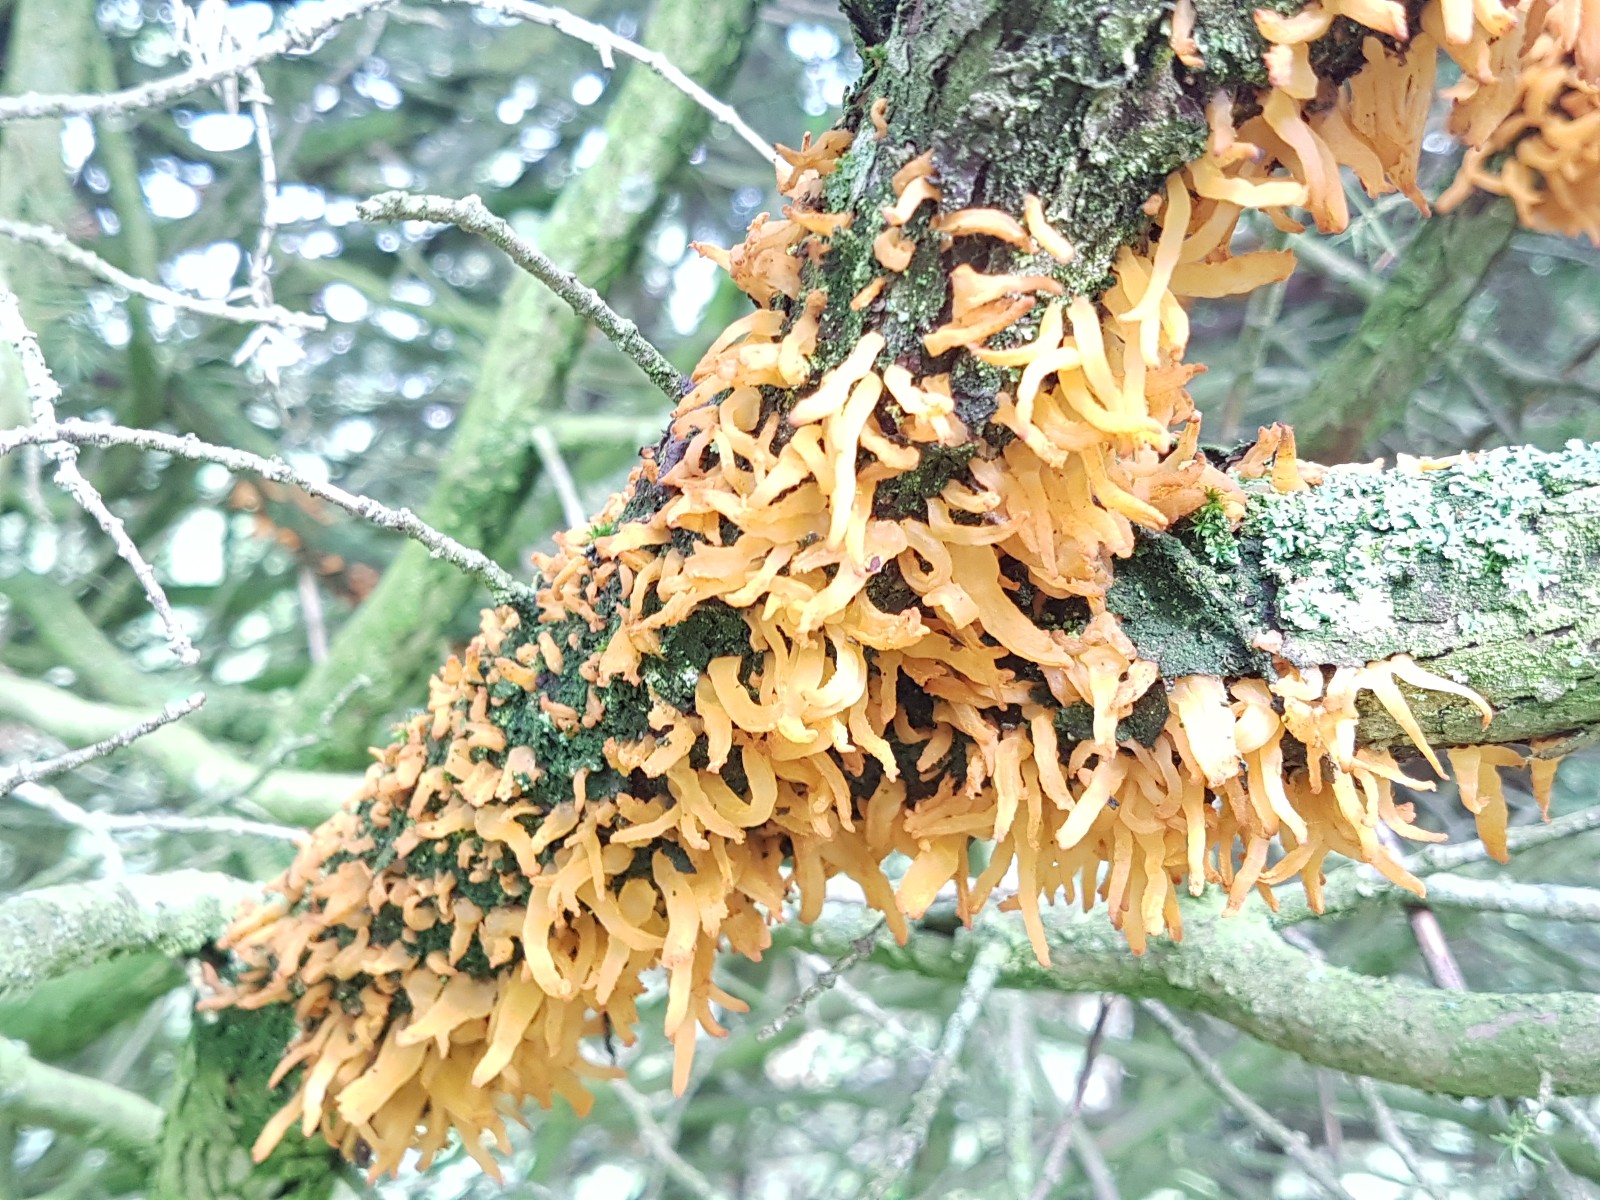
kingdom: Fungi
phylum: Basidiomycota
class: Pucciniomycetes
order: Pucciniales
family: Gymnosporangiaceae
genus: Gymnosporangium
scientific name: Gymnosporangium clavariiforme
